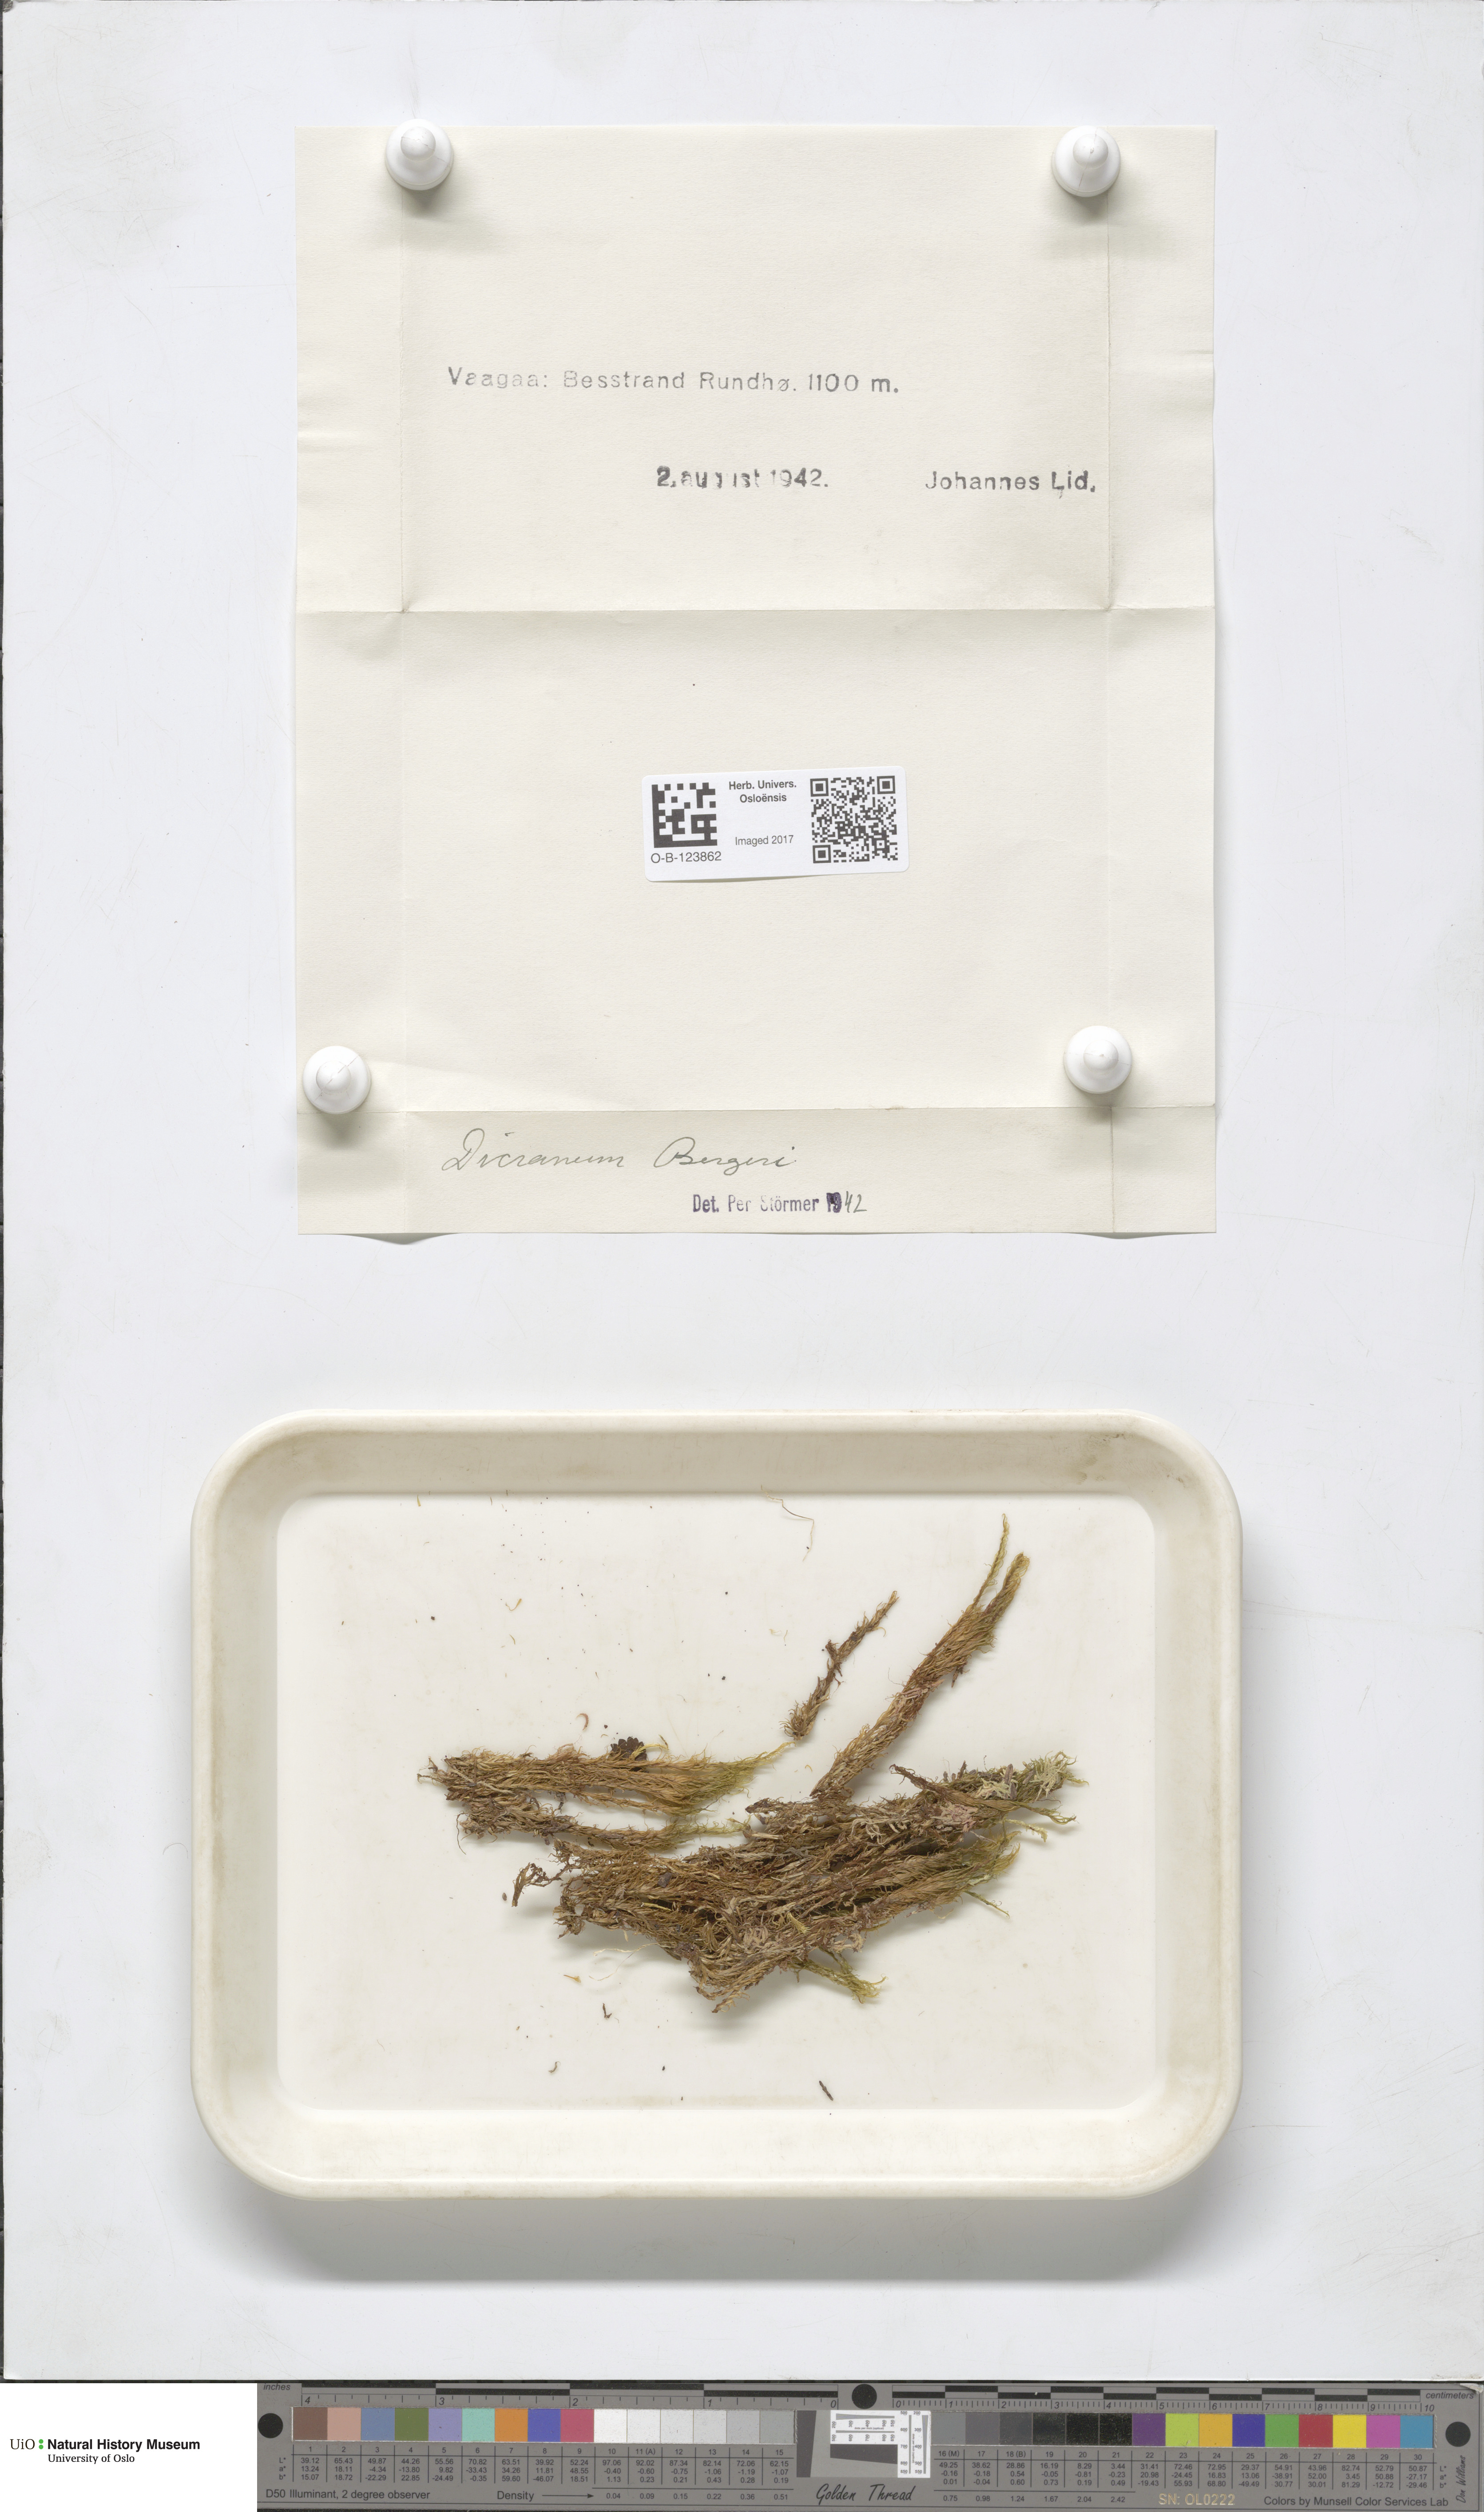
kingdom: Plantae
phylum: Bryophyta
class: Bryopsida
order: Dicranales
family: Dicranaceae
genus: Dicranum
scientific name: Dicranum undulatum
